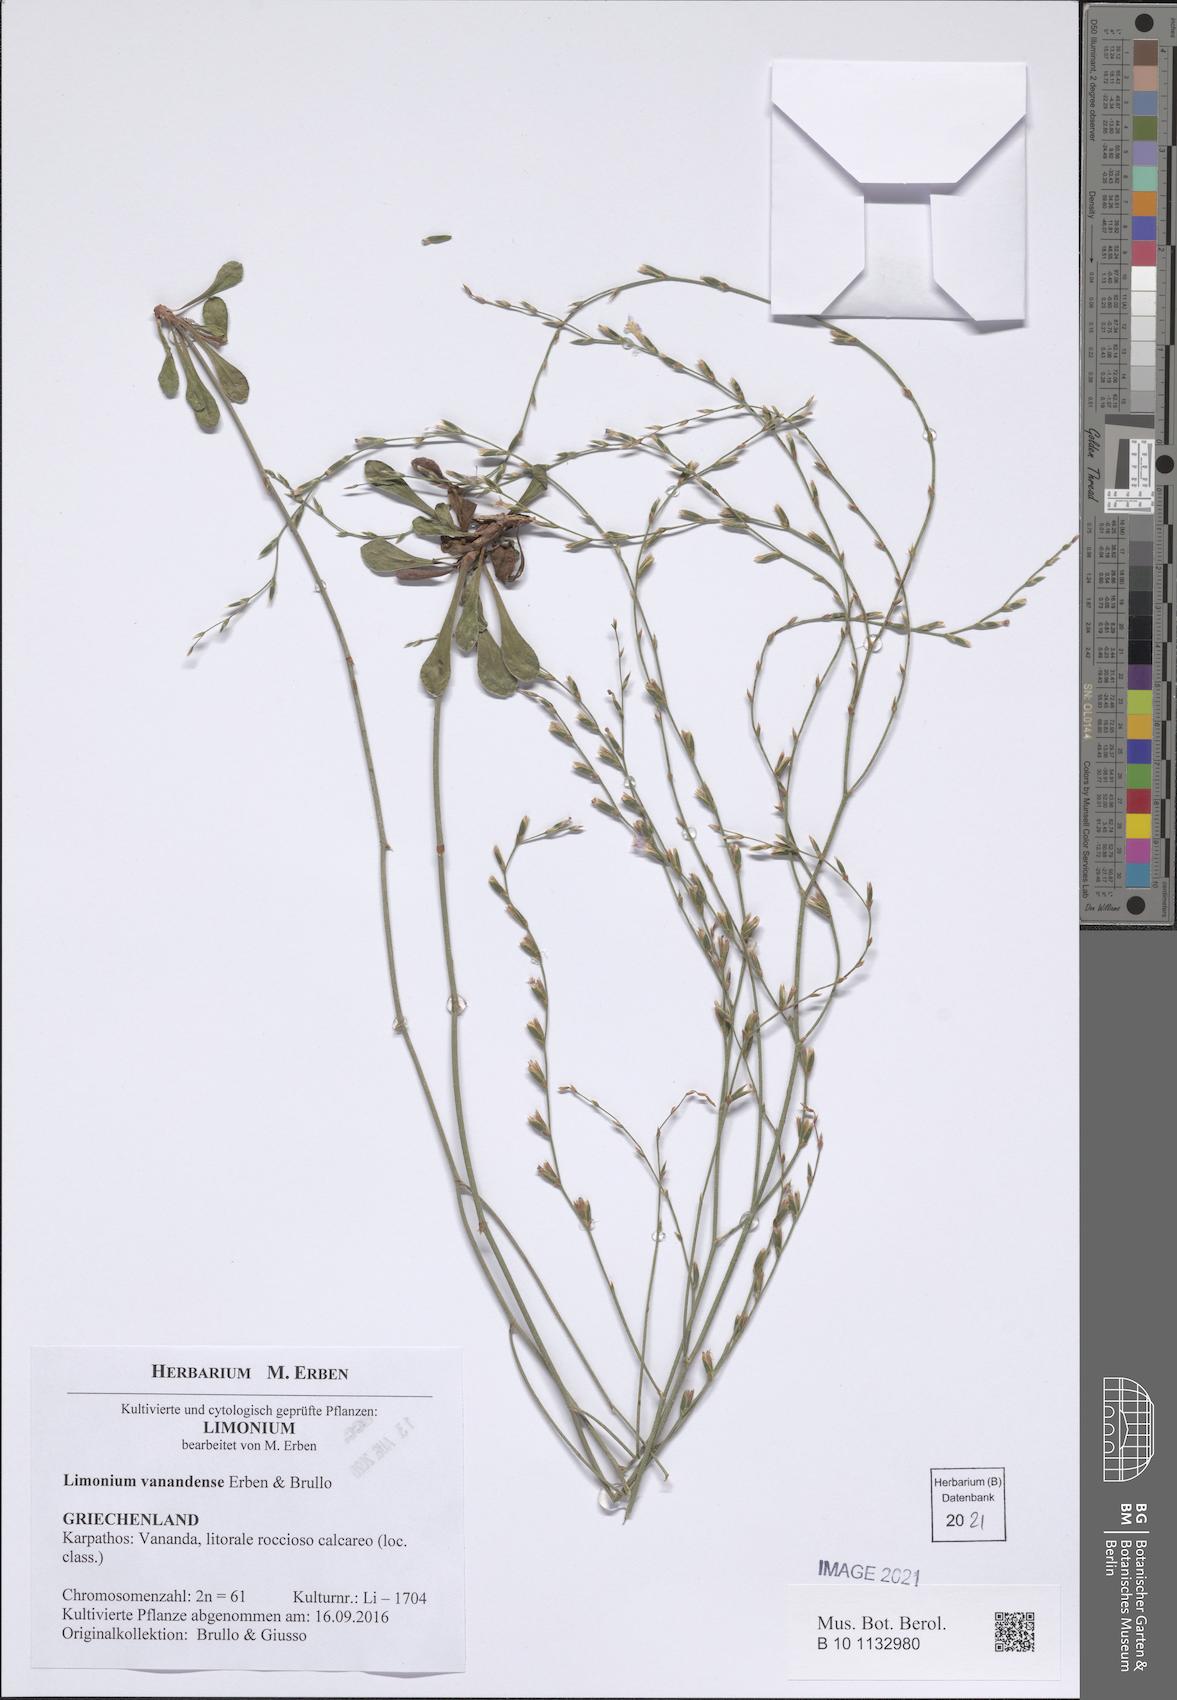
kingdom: Plantae
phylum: Tracheophyta
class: Magnoliopsida
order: Caryophyllales
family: Plumbaginaceae
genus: Limonium
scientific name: Limonium vanandense
